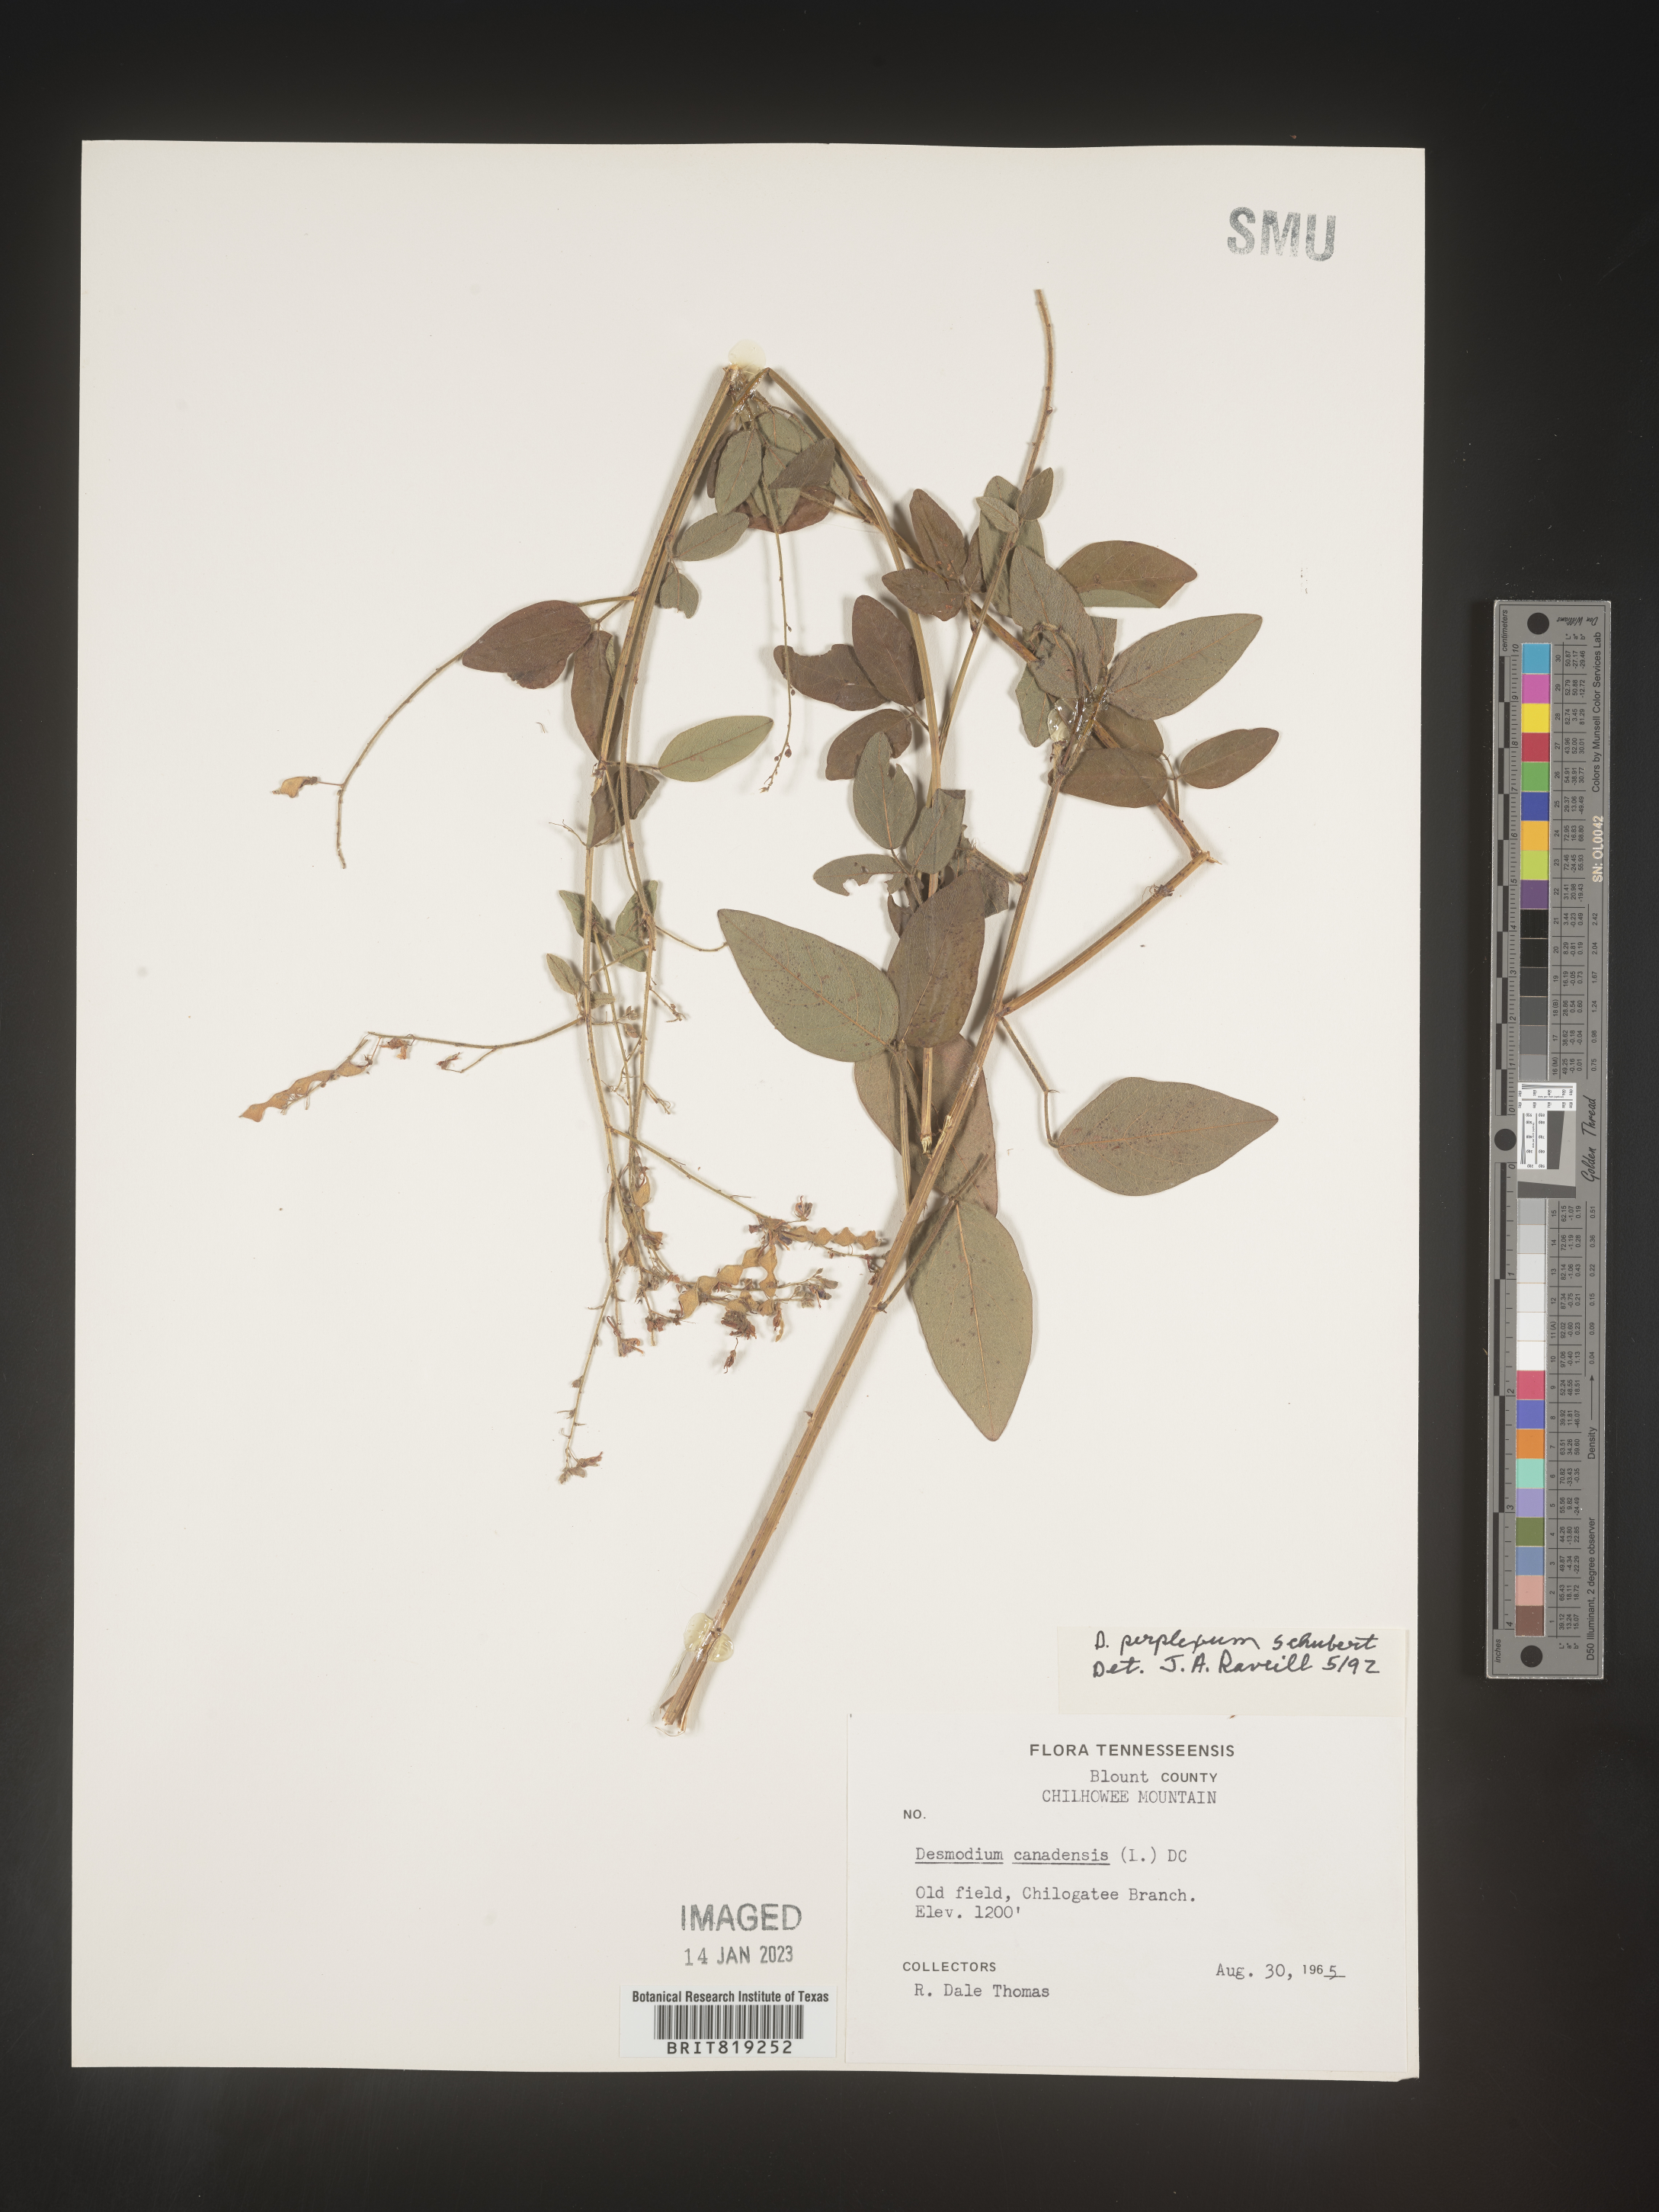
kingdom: Plantae
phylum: Tracheophyta
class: Magnoliopsida
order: Fabales
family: Fabaceae
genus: Desmodium
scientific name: Desmodium perplexum
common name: Perplexed tick trefoil
